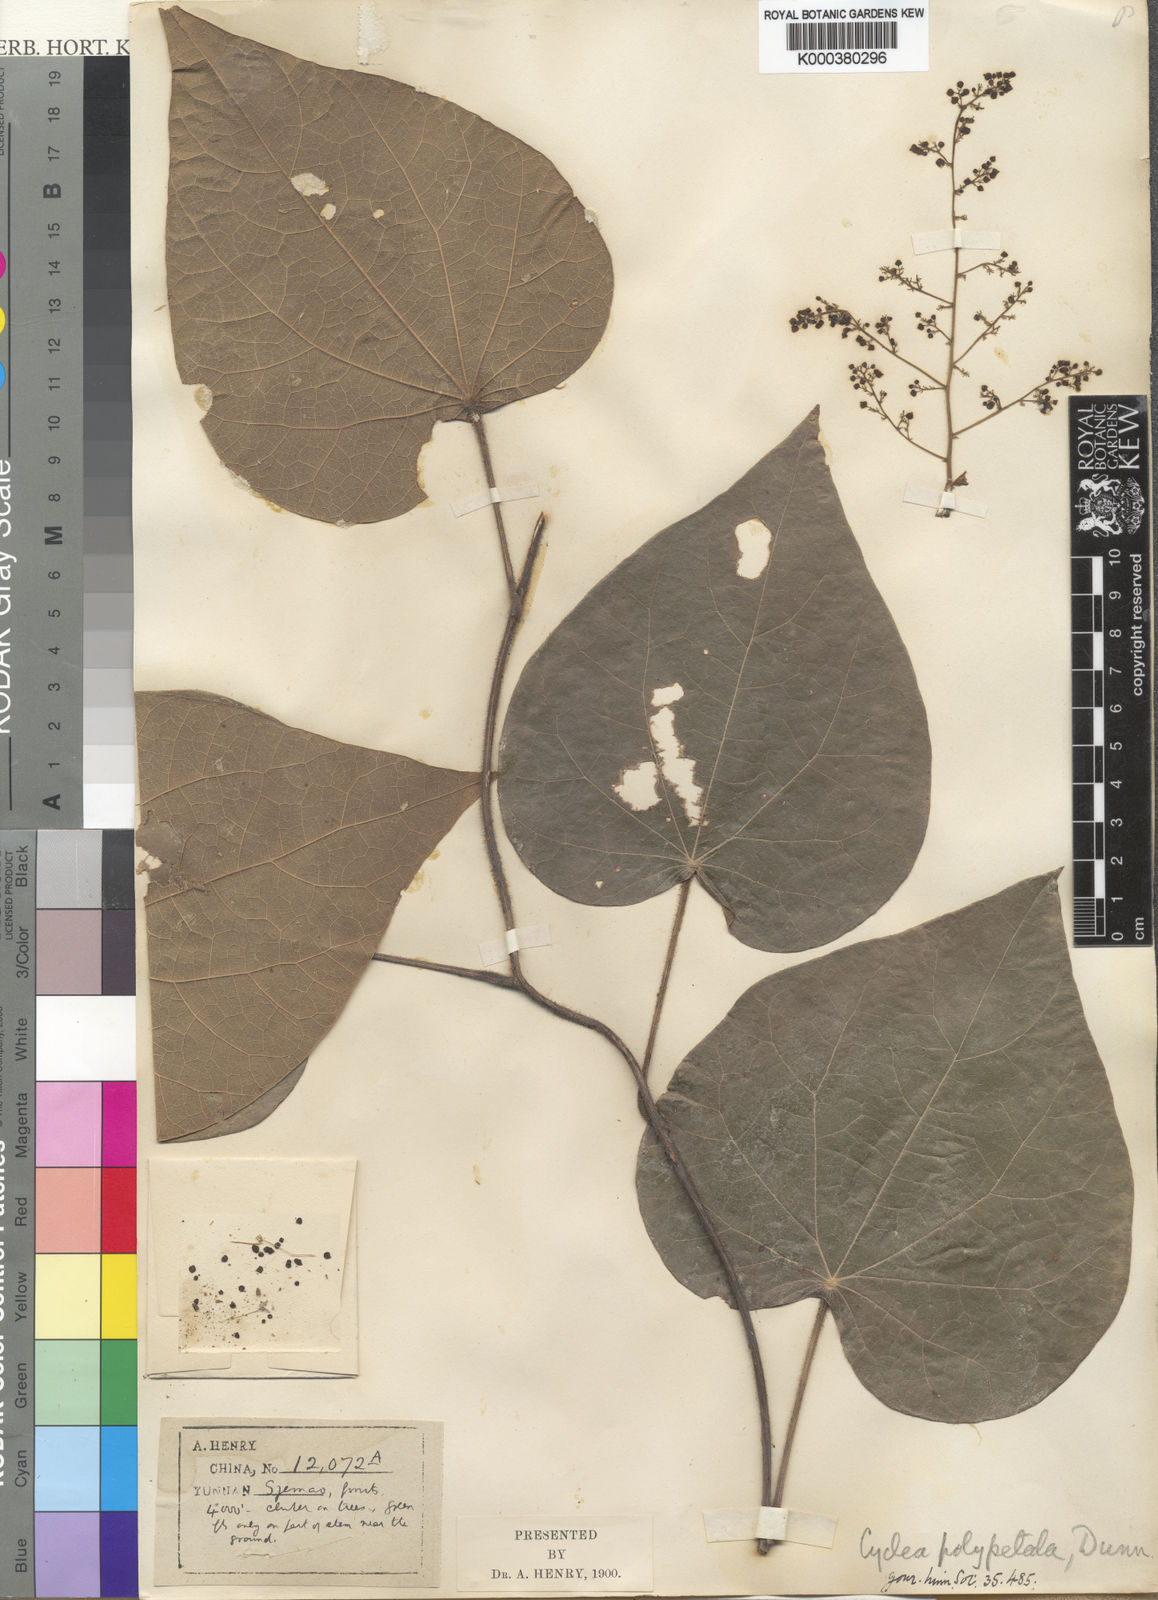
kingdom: Plantae
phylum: Tracheophyta
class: Magnoliopsida
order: Ranunculales
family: Menispermaceae
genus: Cyclea
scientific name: Cyclea polypetala
